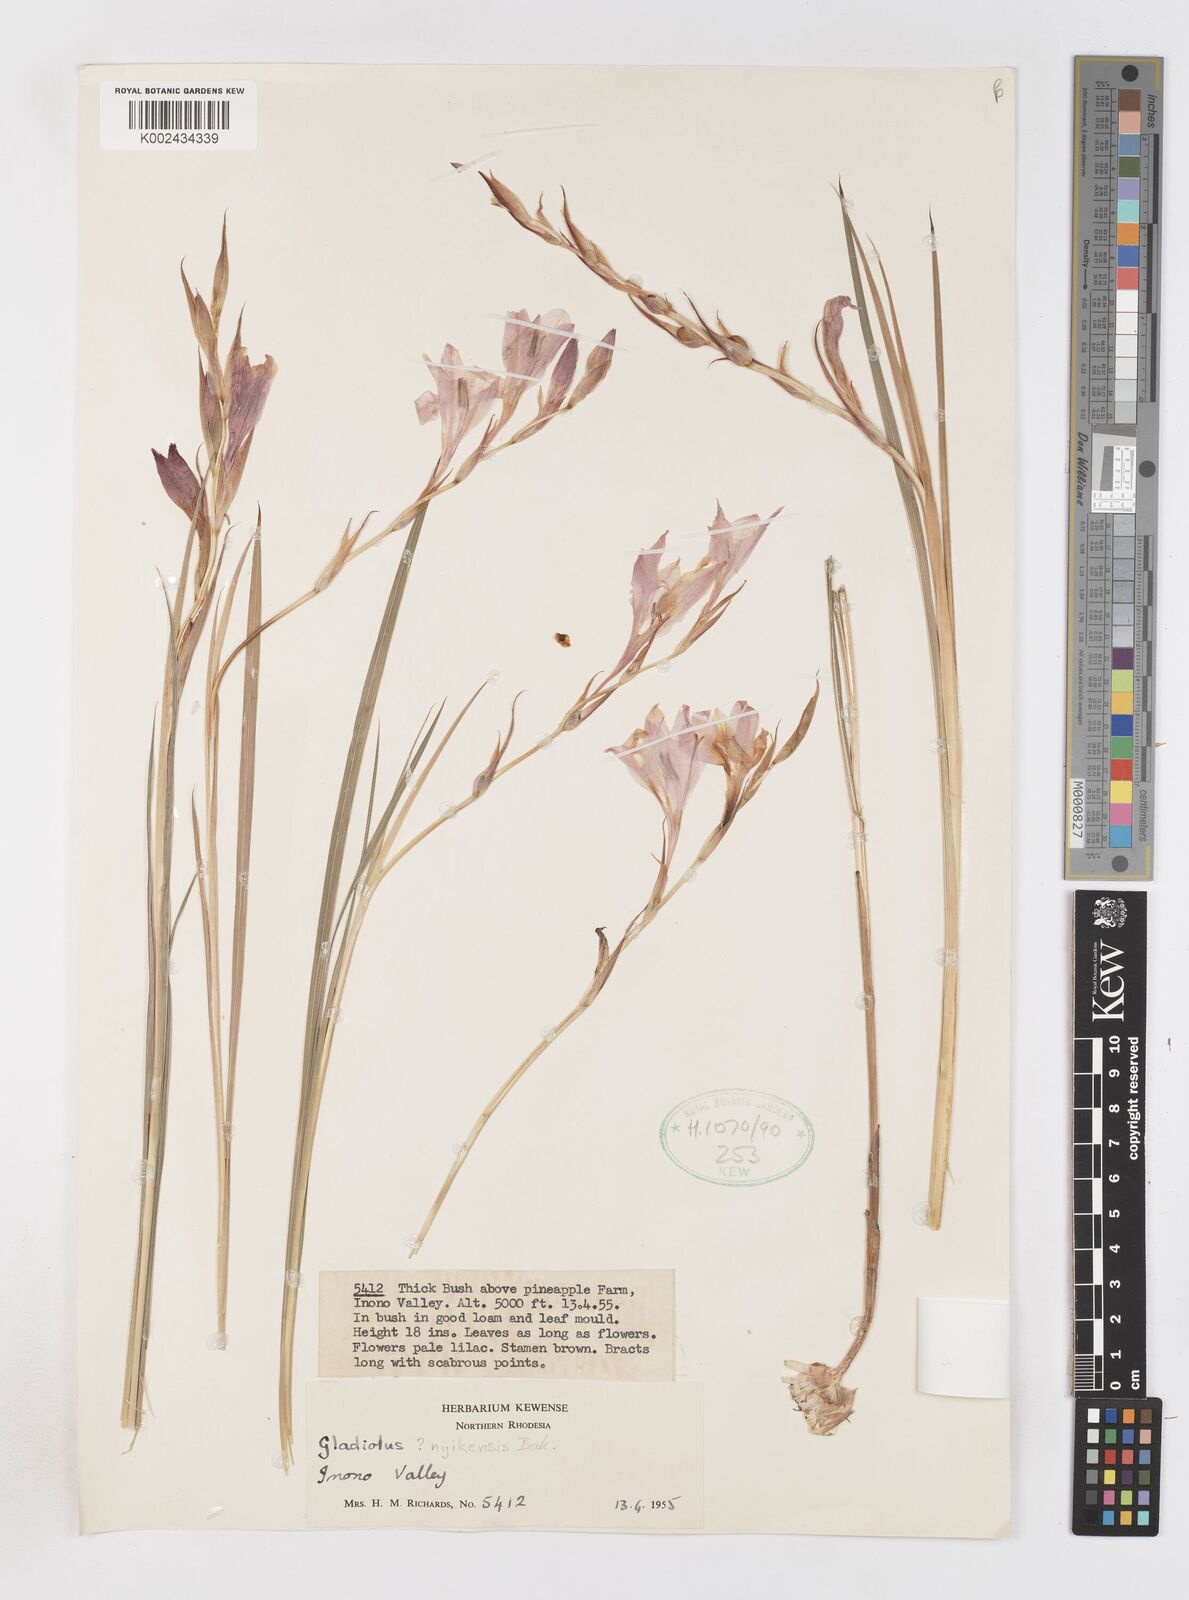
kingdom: Plantae
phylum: Tracheophyta
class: Liliopsida
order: Asparagales
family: Iridaceae
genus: Gladiolus
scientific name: Gladiolus erectiflorus
